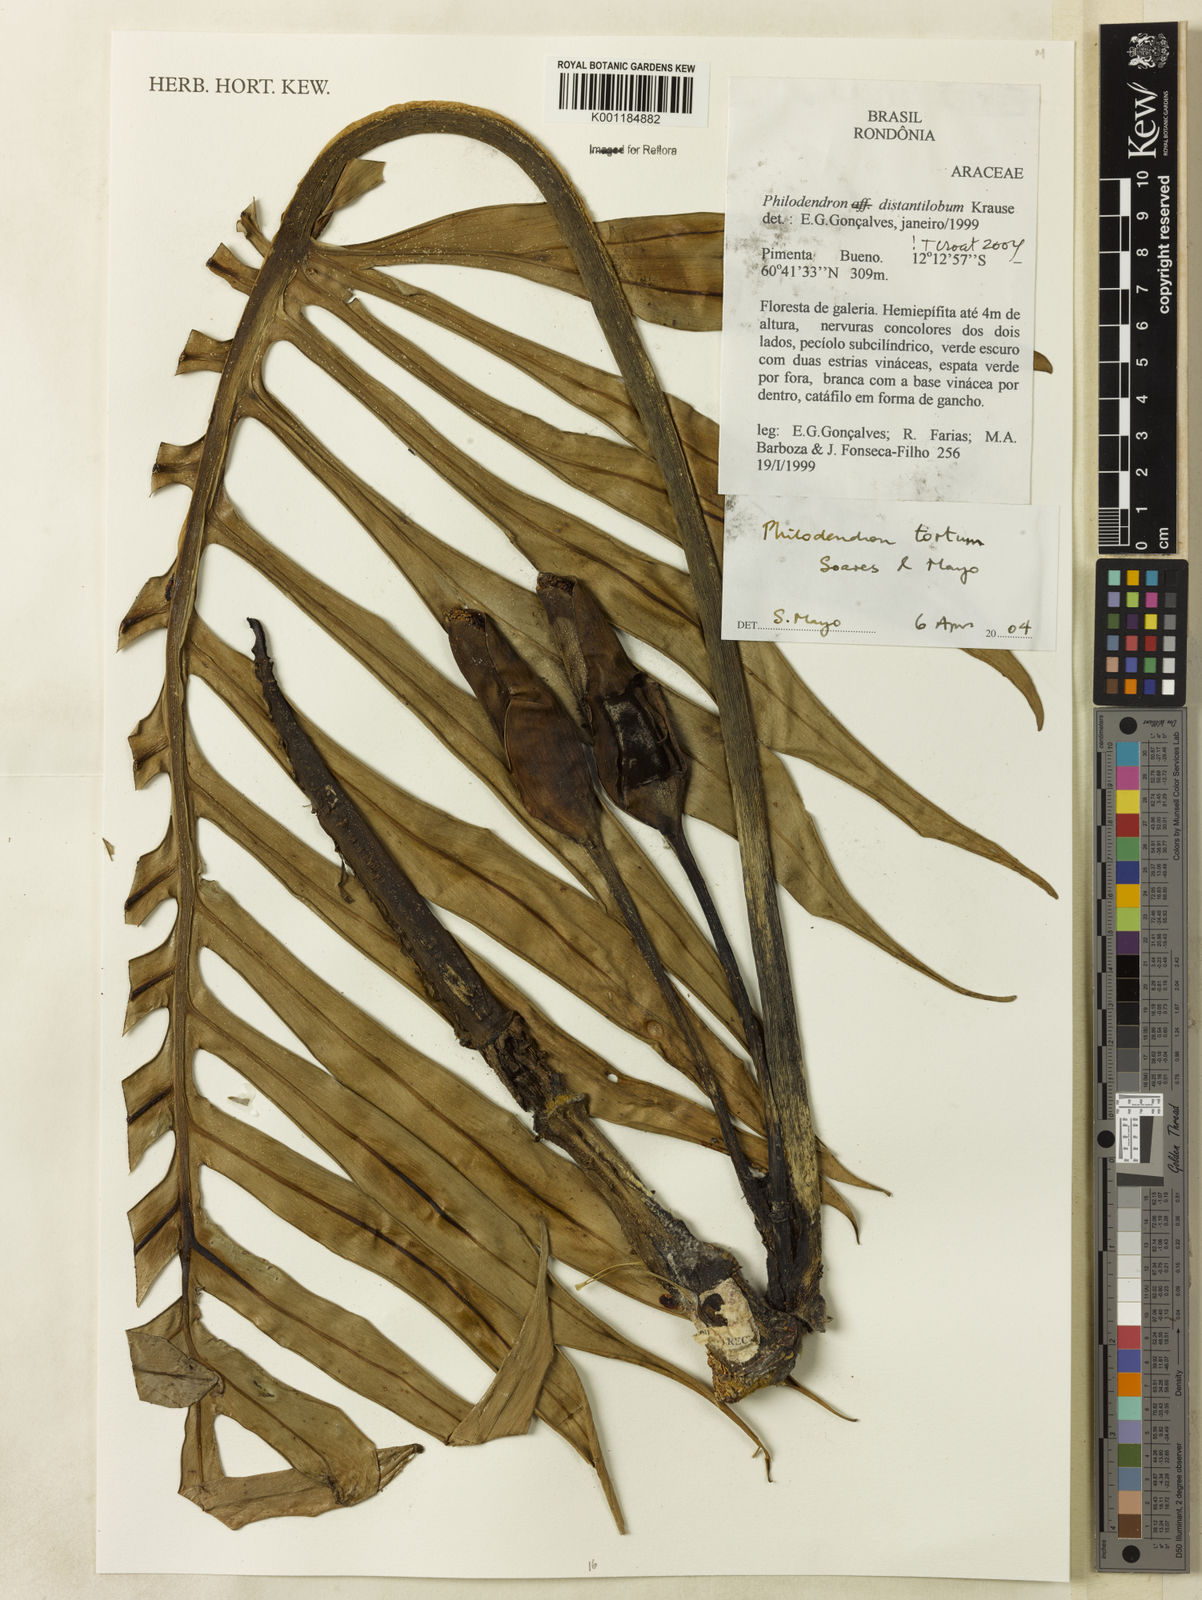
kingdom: Plantae
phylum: Tracheophyta
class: Liliopsida
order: Alismatales
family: Araceae
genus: Philodendron
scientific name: Philodendron tortum
